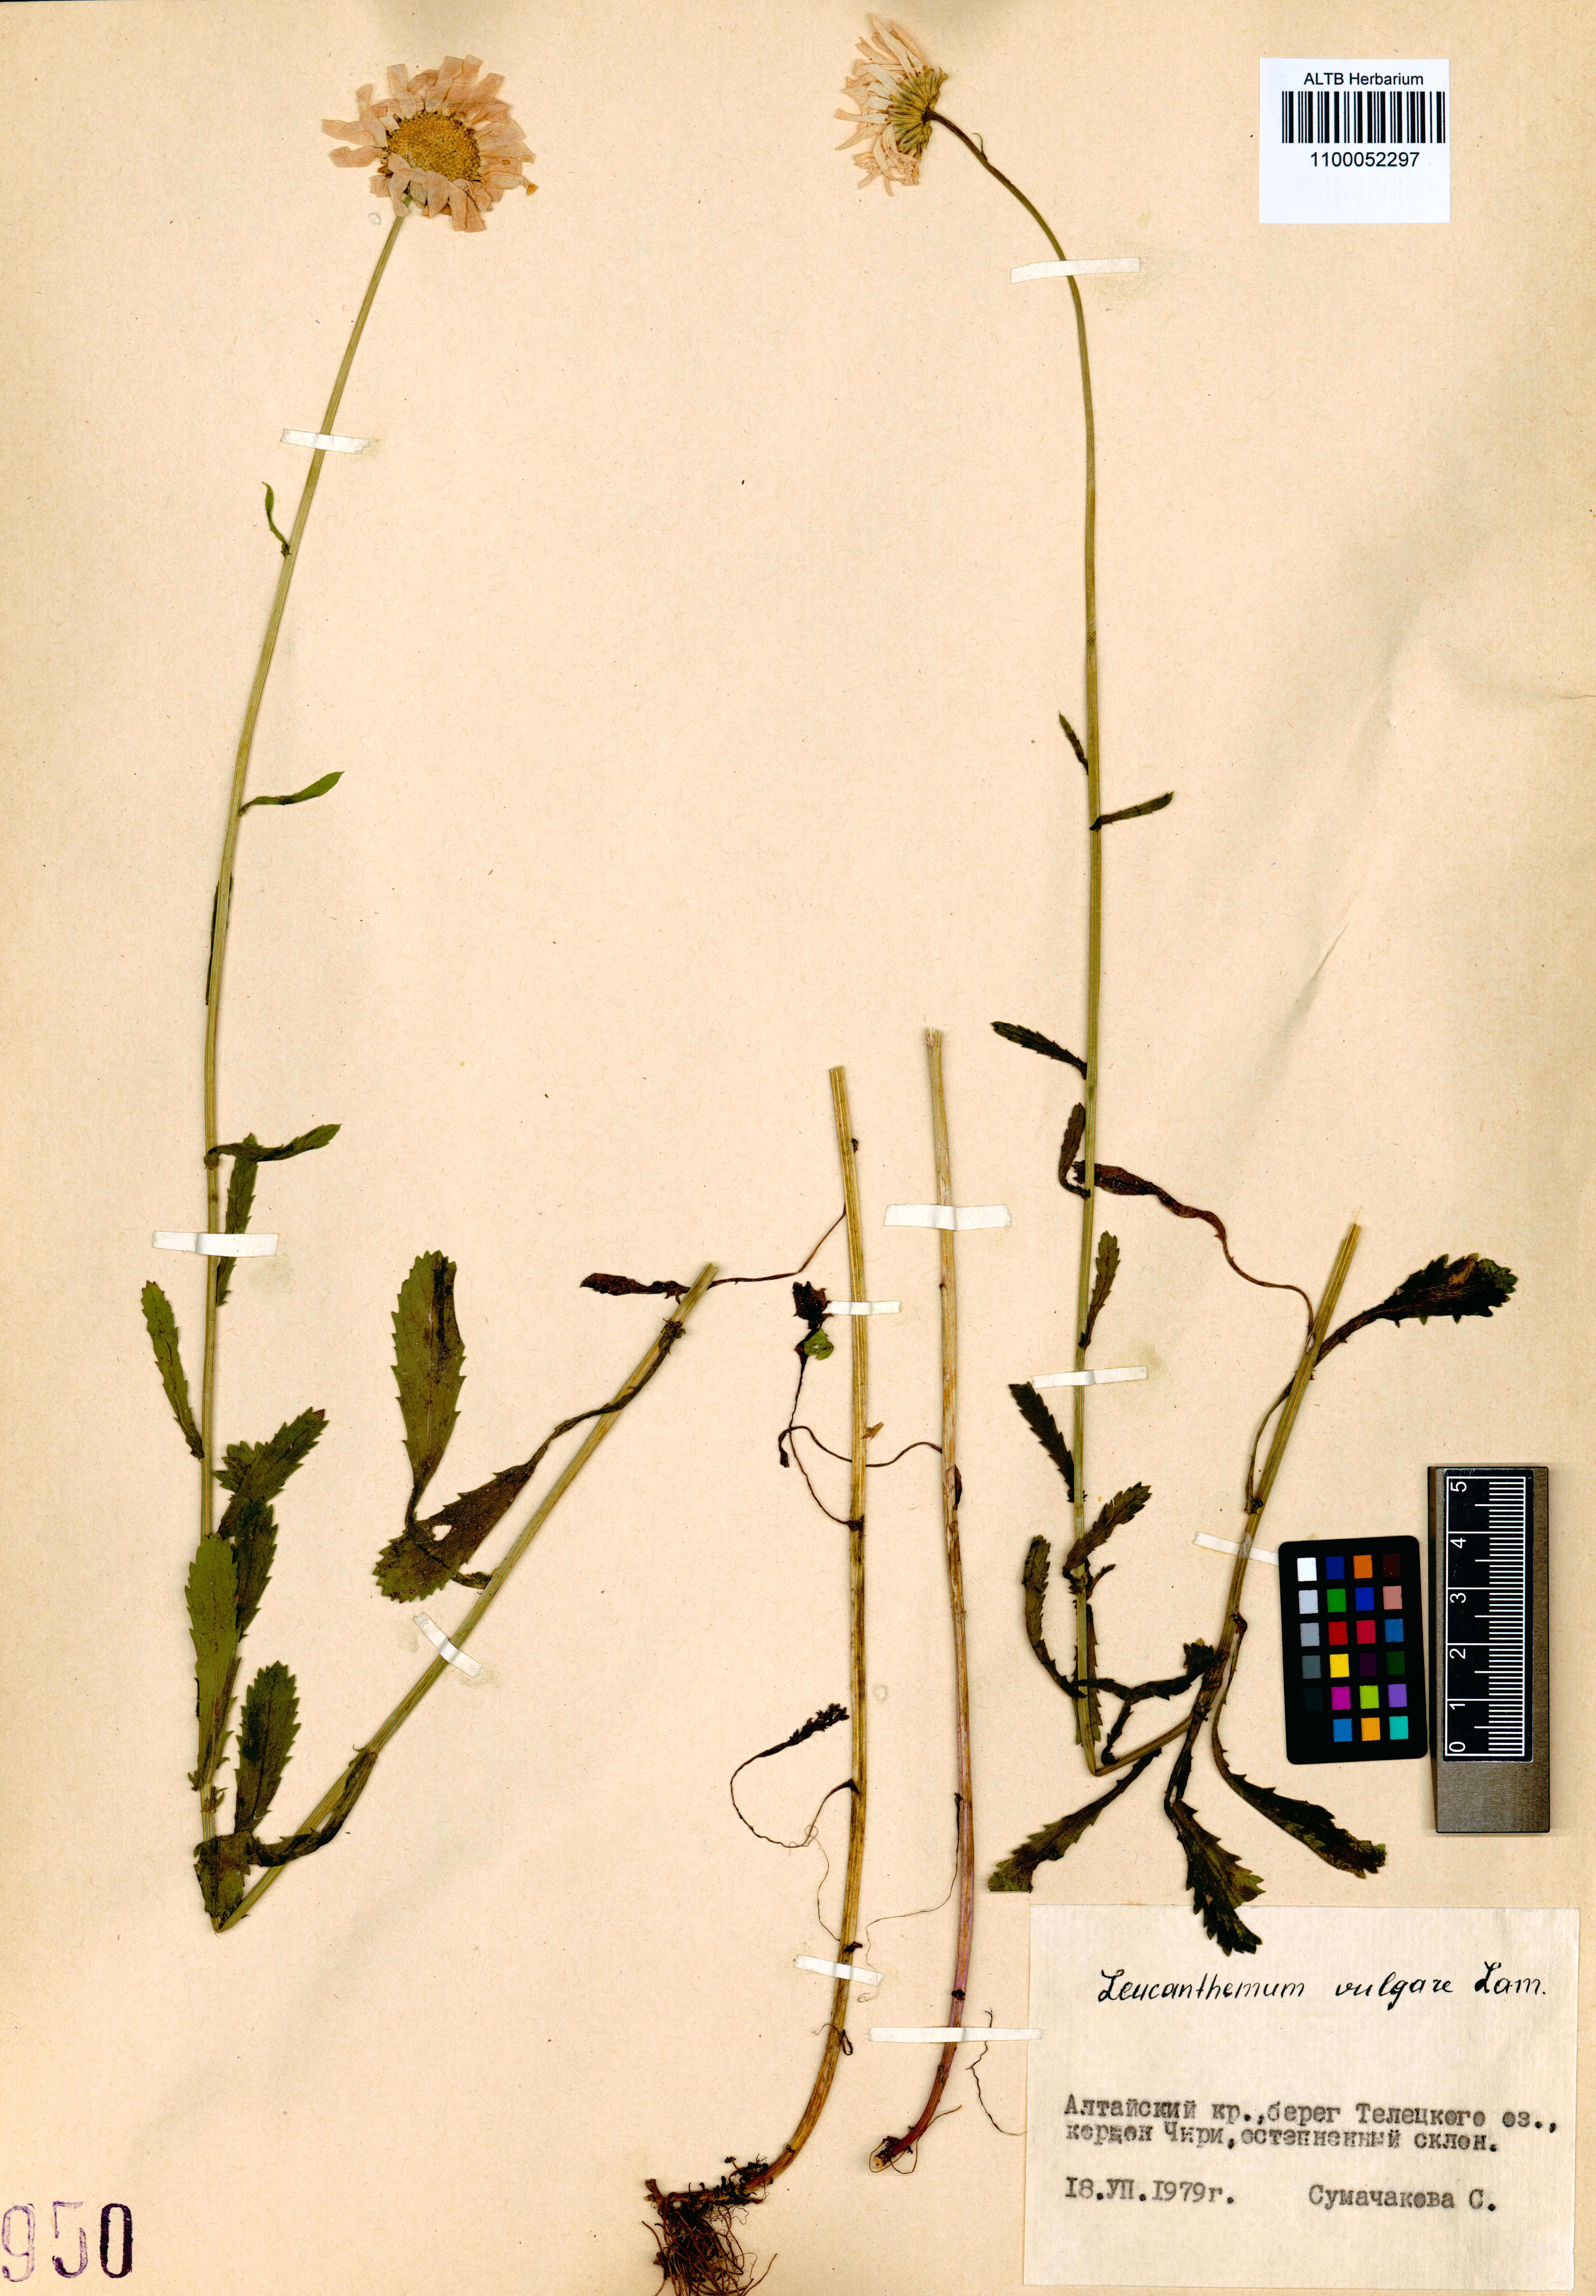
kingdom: Plantae
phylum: Tracheophyta
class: Magnoliopsida
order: Asterales
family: Asteraceae
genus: Leucanthemum
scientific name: Leucanthemum vulgare
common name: Oxeye daisy
